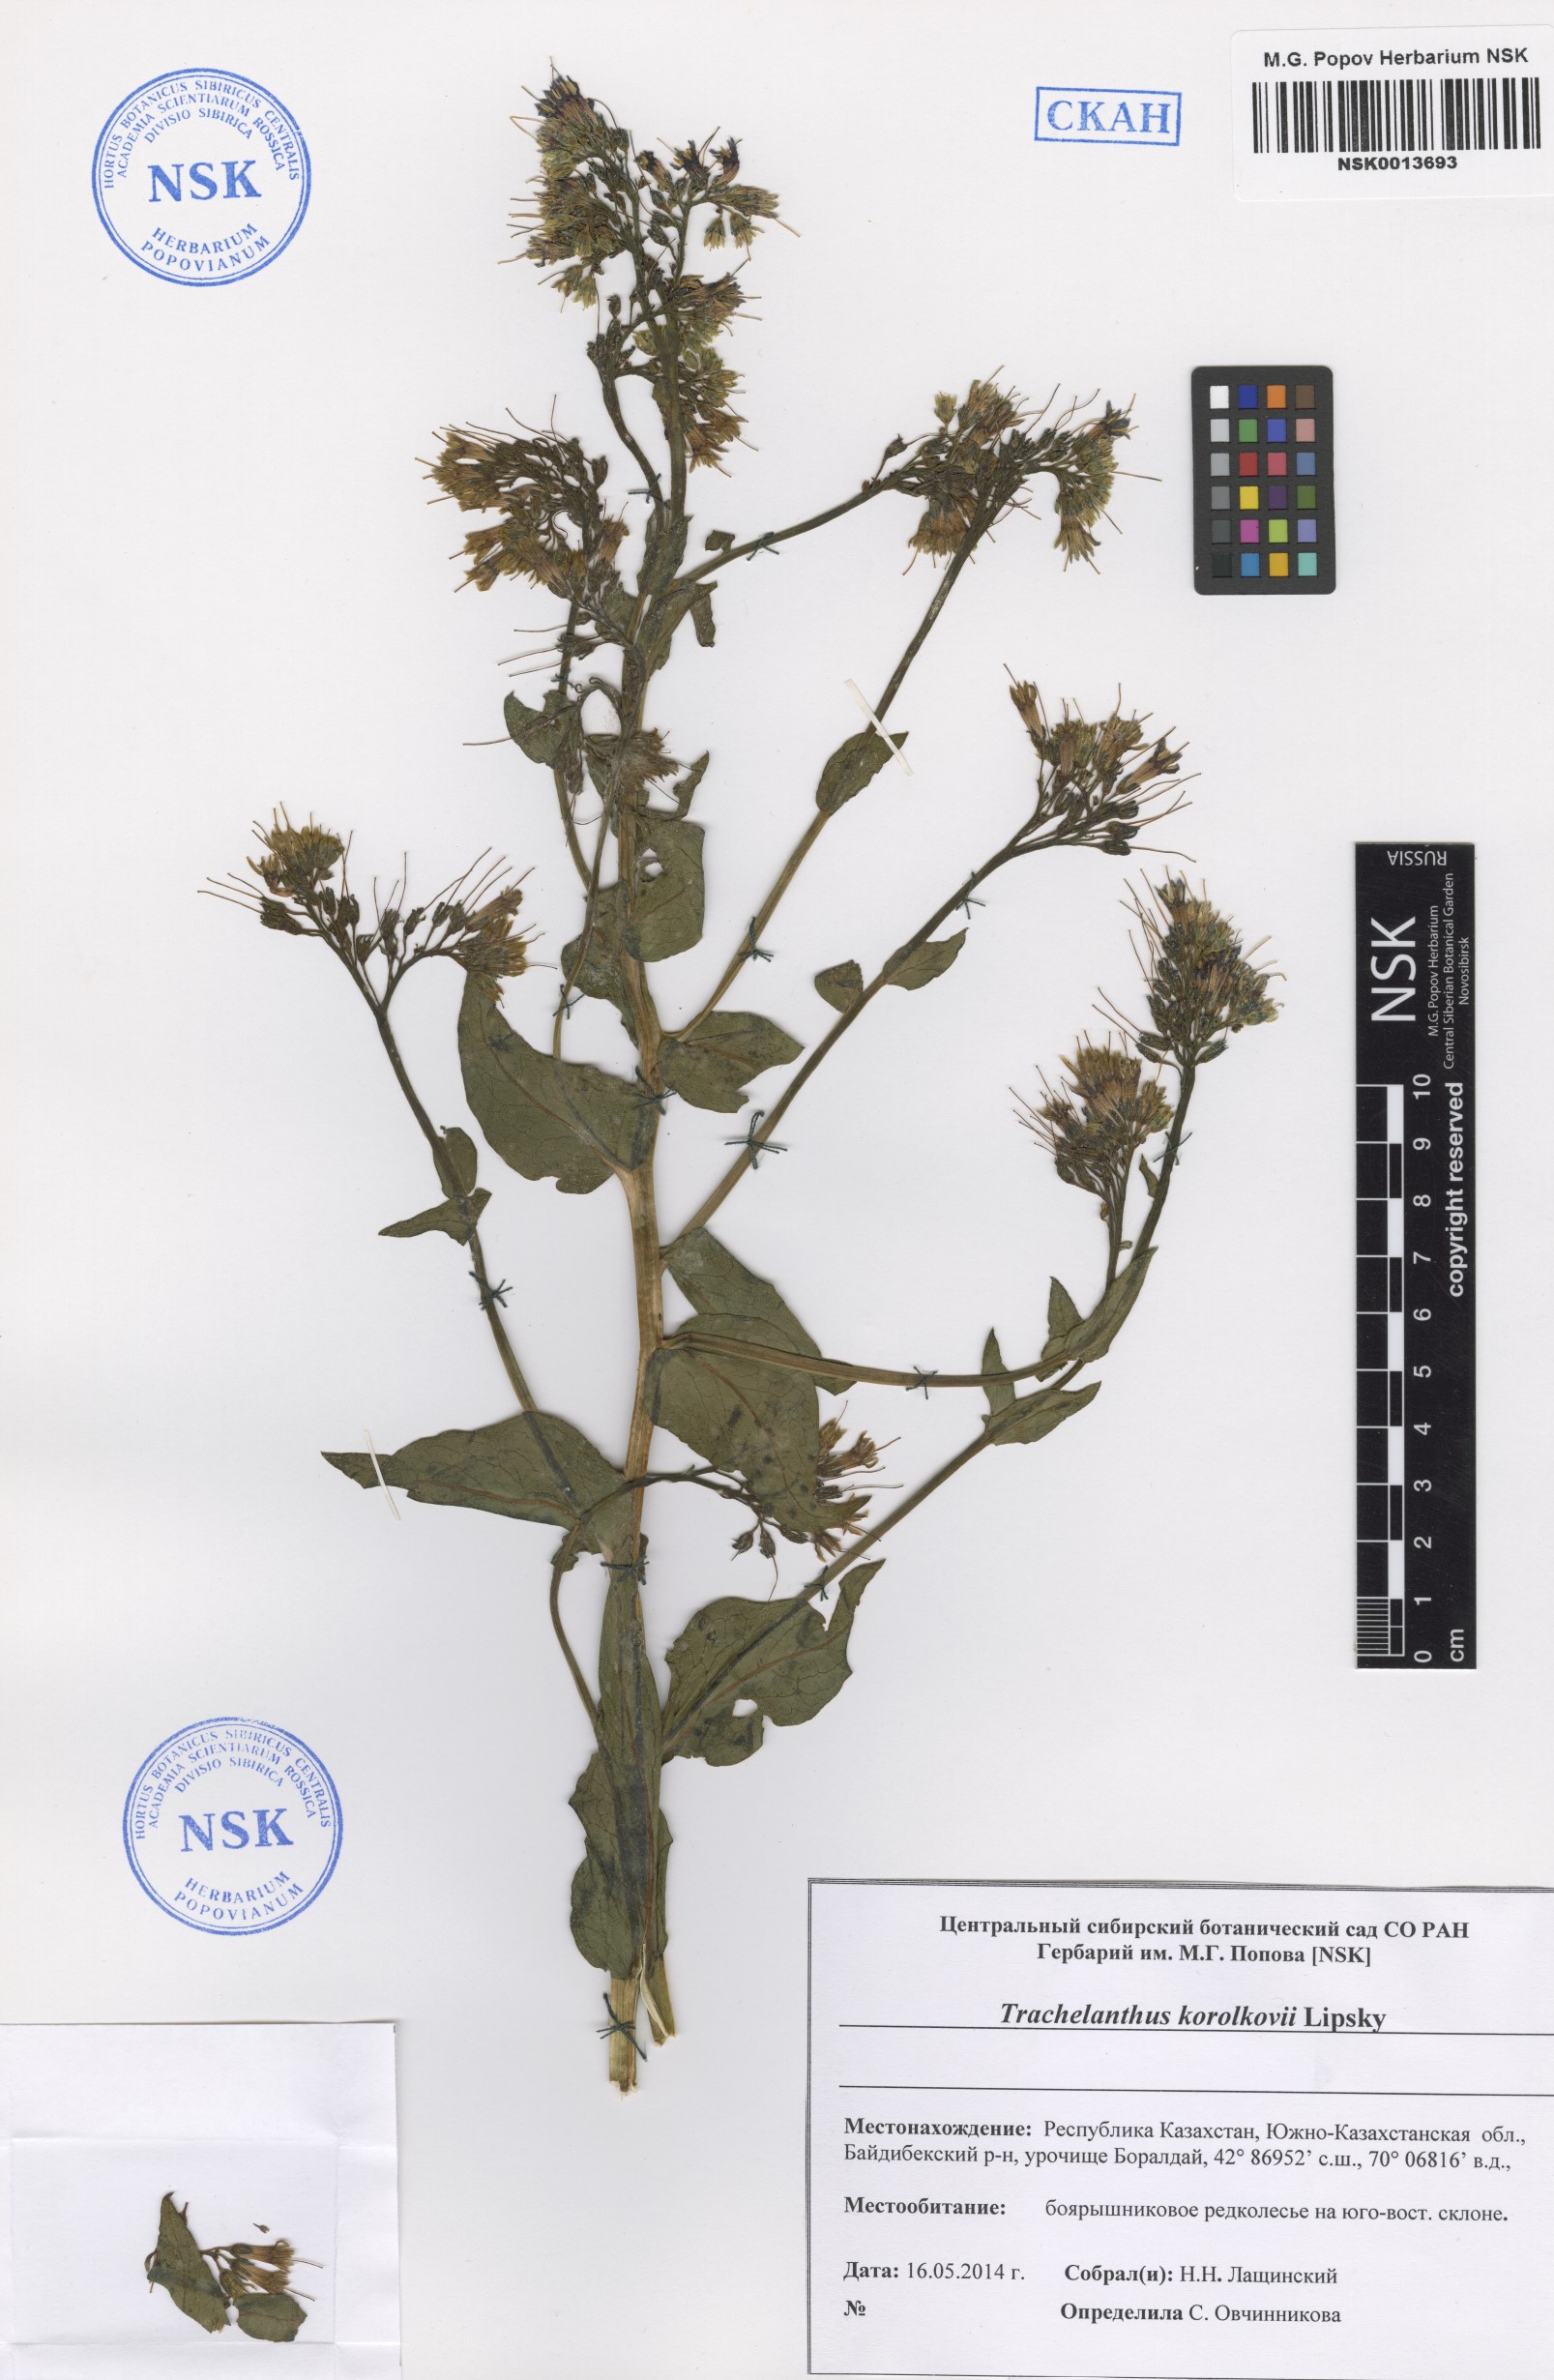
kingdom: Plantae
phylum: Tracheophyta
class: Magnoliopsida
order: Boraginales
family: Boraginaceae
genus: Lindelofia
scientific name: Lindelofia korolkowii
